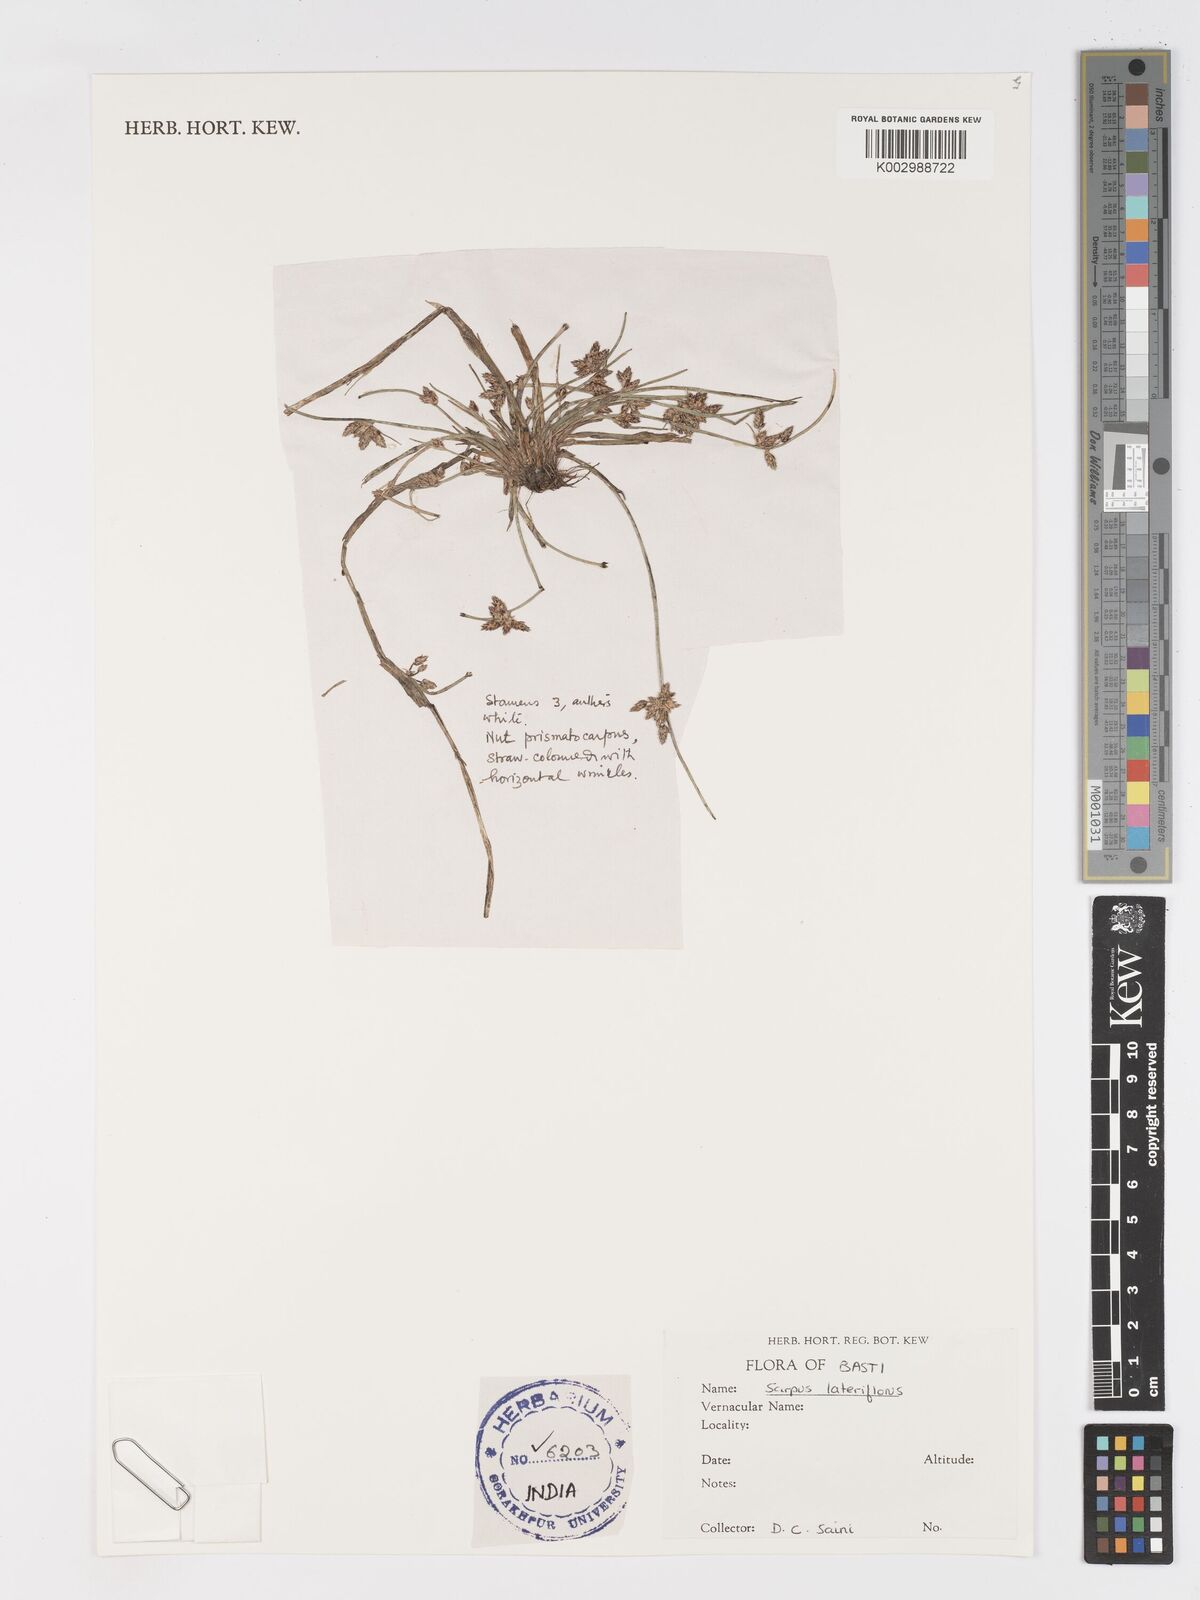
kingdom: Plantae
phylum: Tracheophyta
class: Liliopsida
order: Poales
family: Cyperaceae
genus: Schoenoplectiella
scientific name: Schoenoplectiella lateriflora
